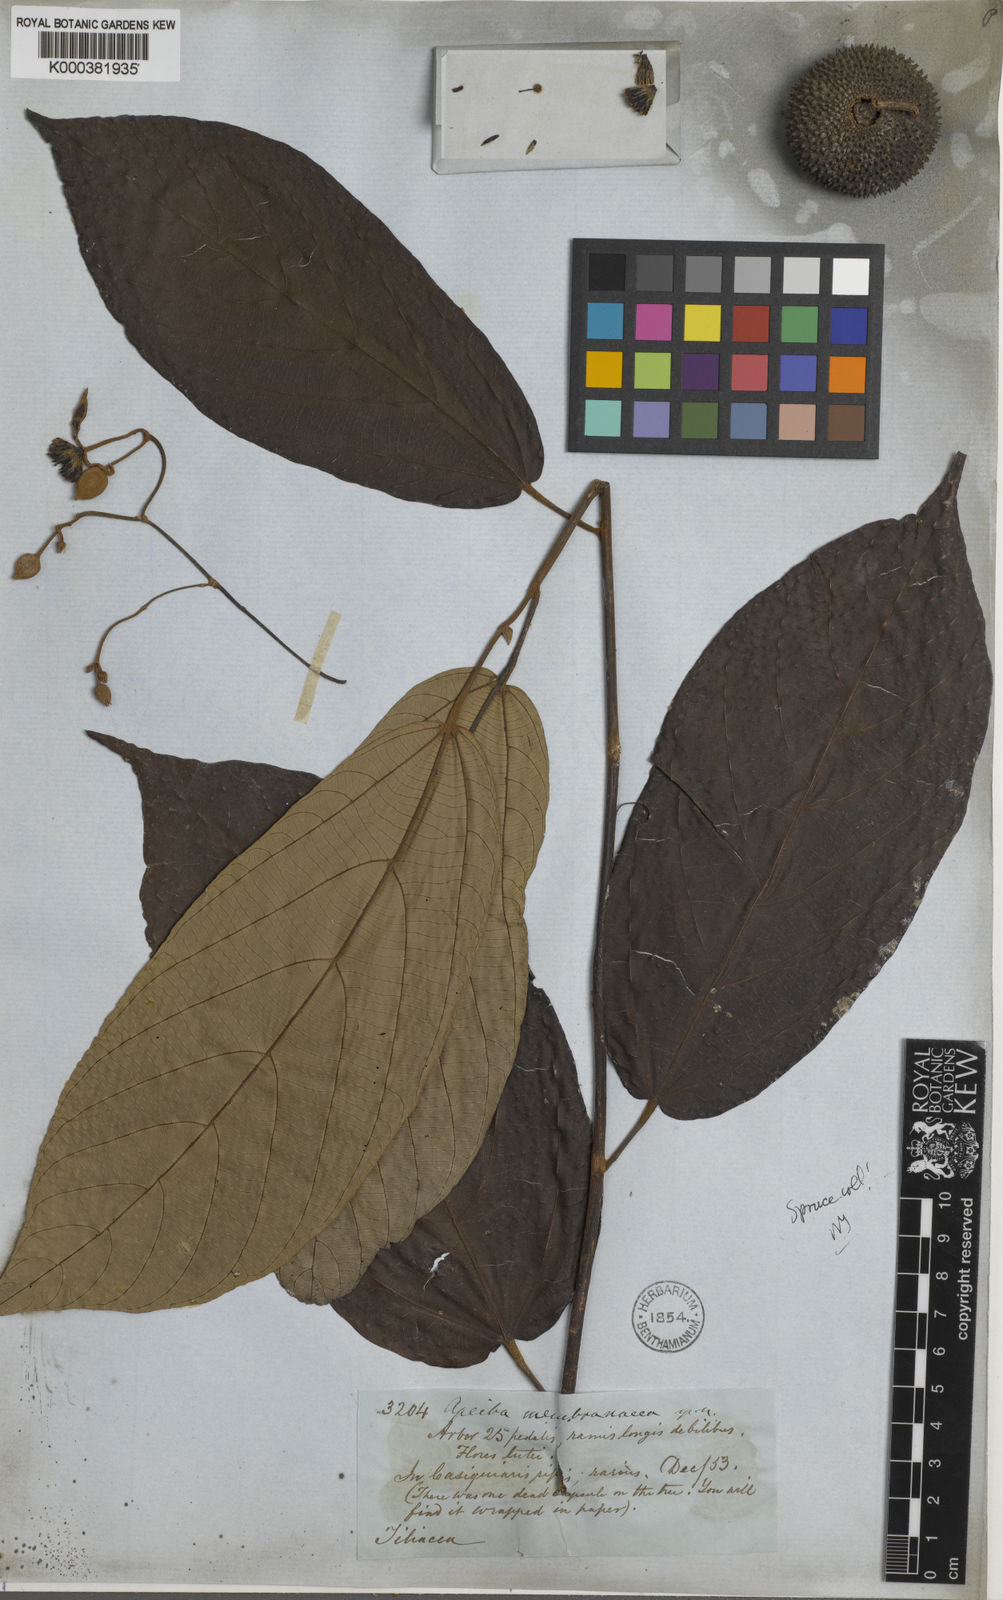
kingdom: Plantae
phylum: Tracheophyta
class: Magnoliopsida
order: Malvales
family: Malvaceae
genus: Apeiba
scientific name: Apeiba membranacea
